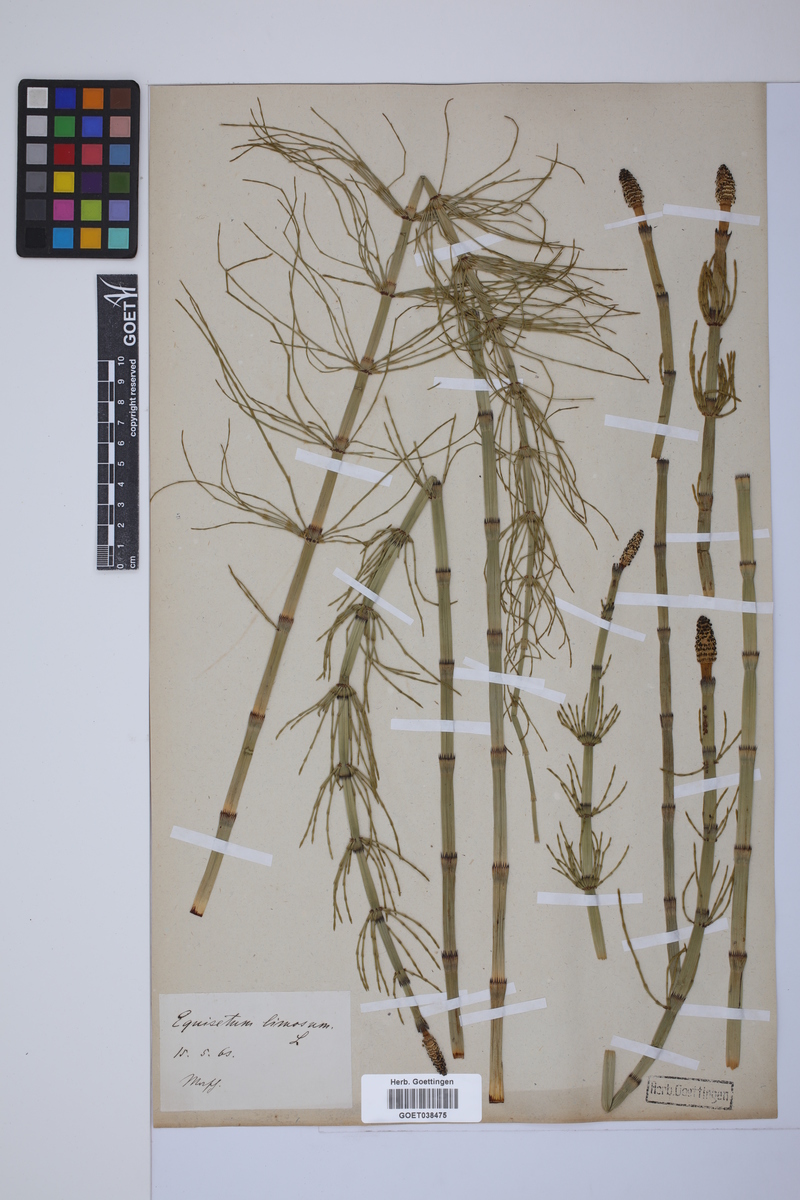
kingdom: Plantae
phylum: Tracheophyta
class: Polypodiopsida
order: Equisetales
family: Equisetaceae
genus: Equisetum
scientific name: Equisetum fluviatile
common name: Water horsetail
